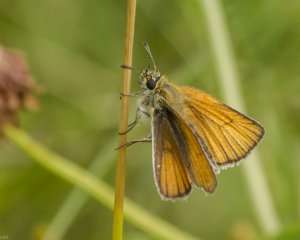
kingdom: Animalia
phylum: Arthropoda
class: Insecta
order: Lepidoptera
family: Hesperiidae
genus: Thymelicus
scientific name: Thymelicus lineola
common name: European Skipper
